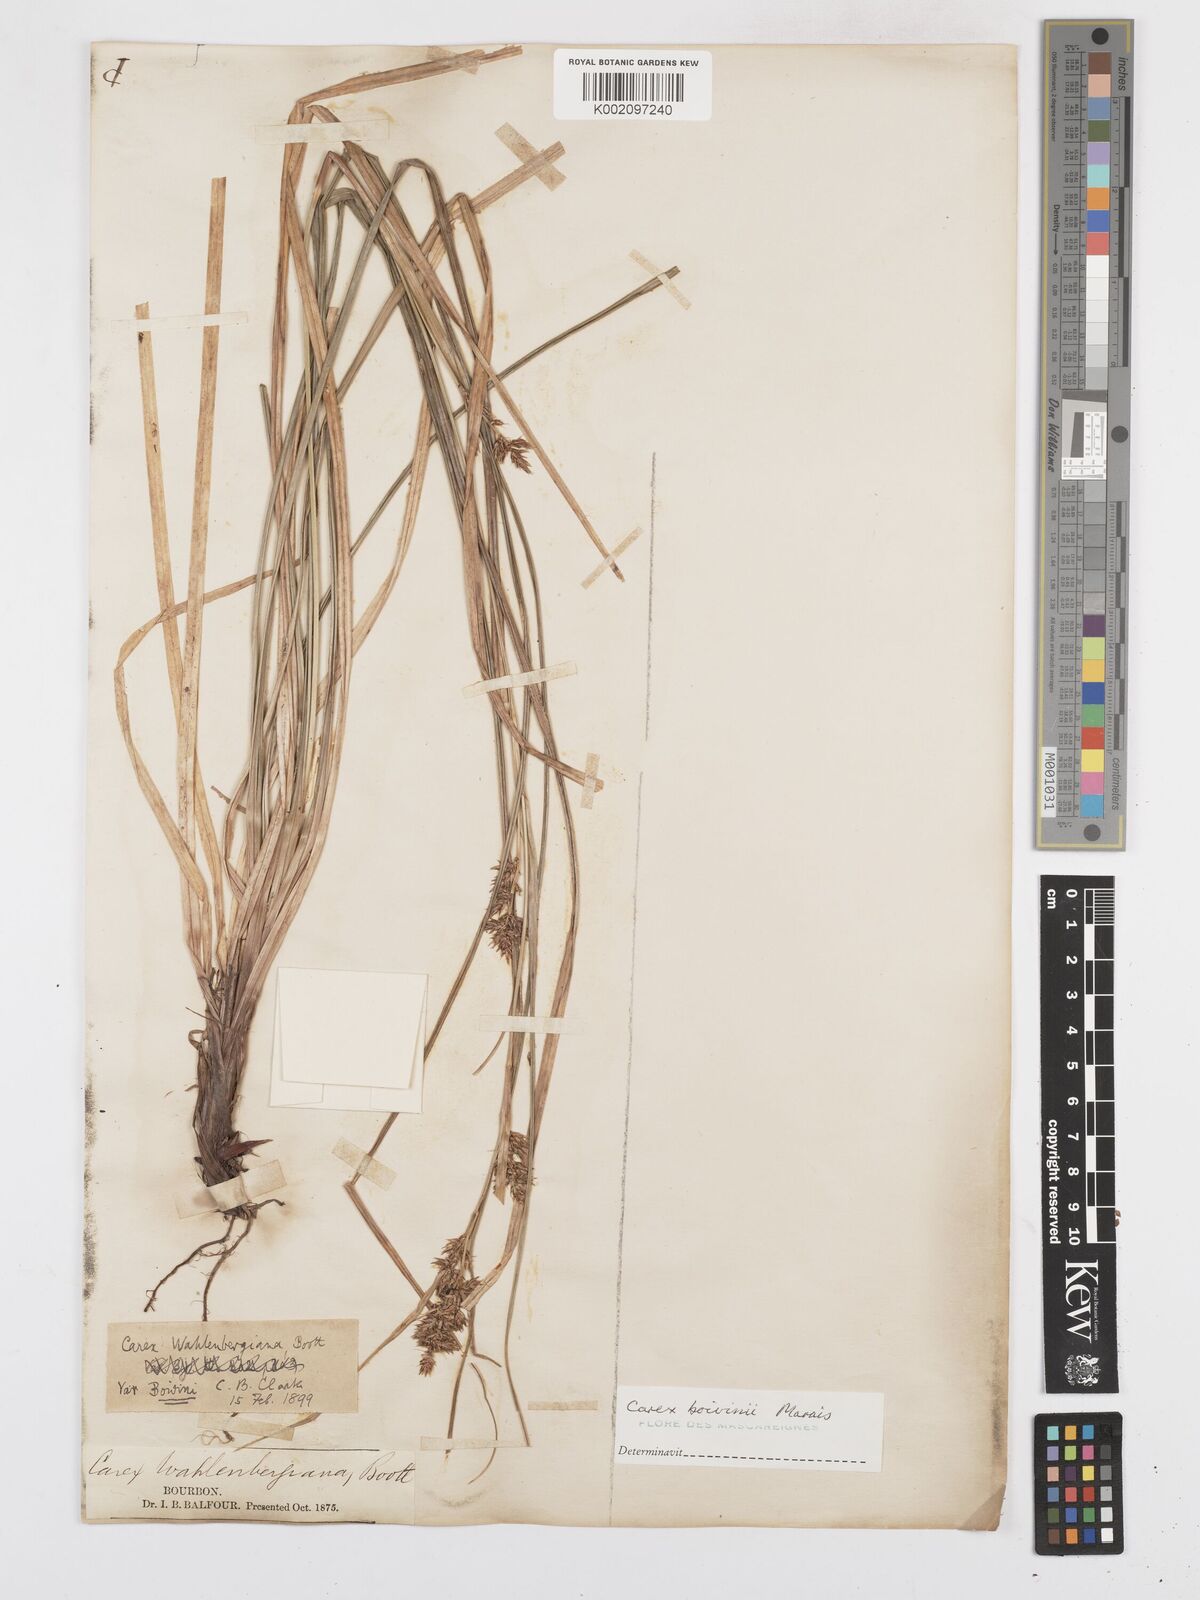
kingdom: Plantae
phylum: Tracheophyta
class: Liliopsida
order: Poales
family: Cyperaceae
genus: Carex
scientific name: Carex wahlenbergiana
